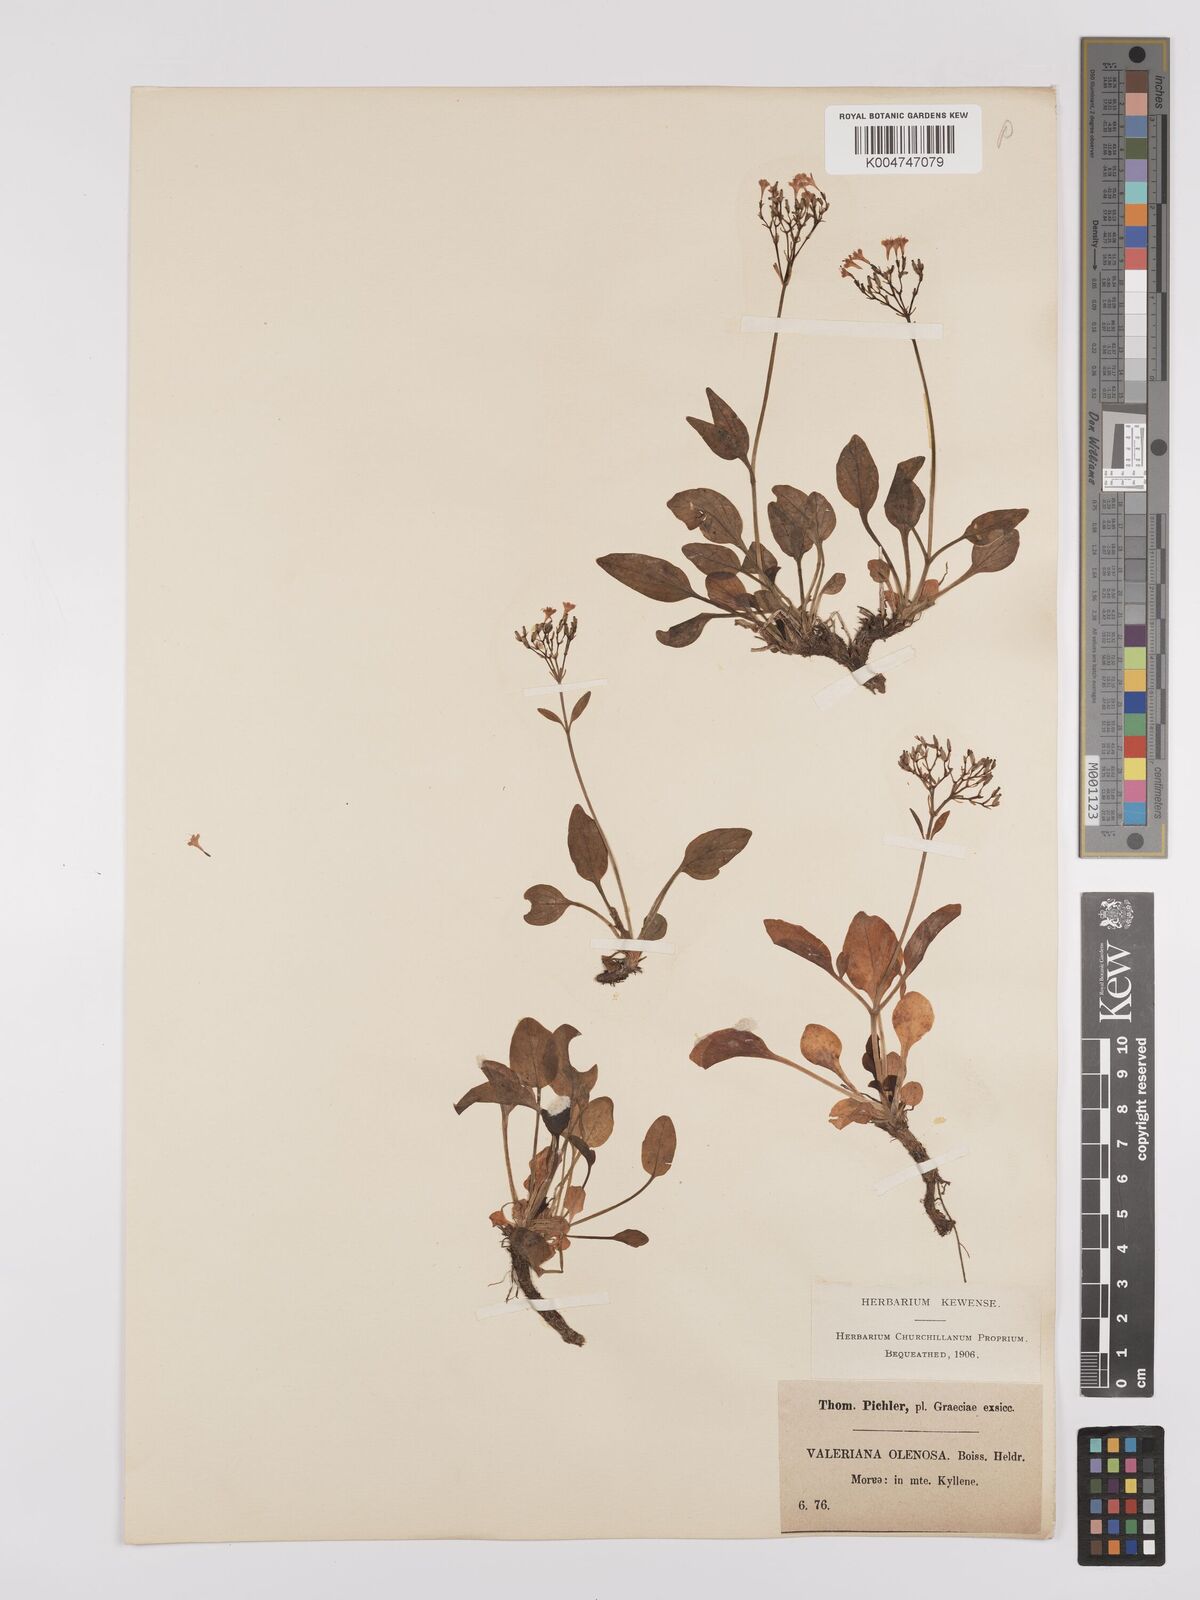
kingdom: Plantae
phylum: Tracheophyta
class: Magnoliopsida
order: Dipsacales
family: Caprifoliaceae
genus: Valeriana
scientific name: Valeriana olenaea
